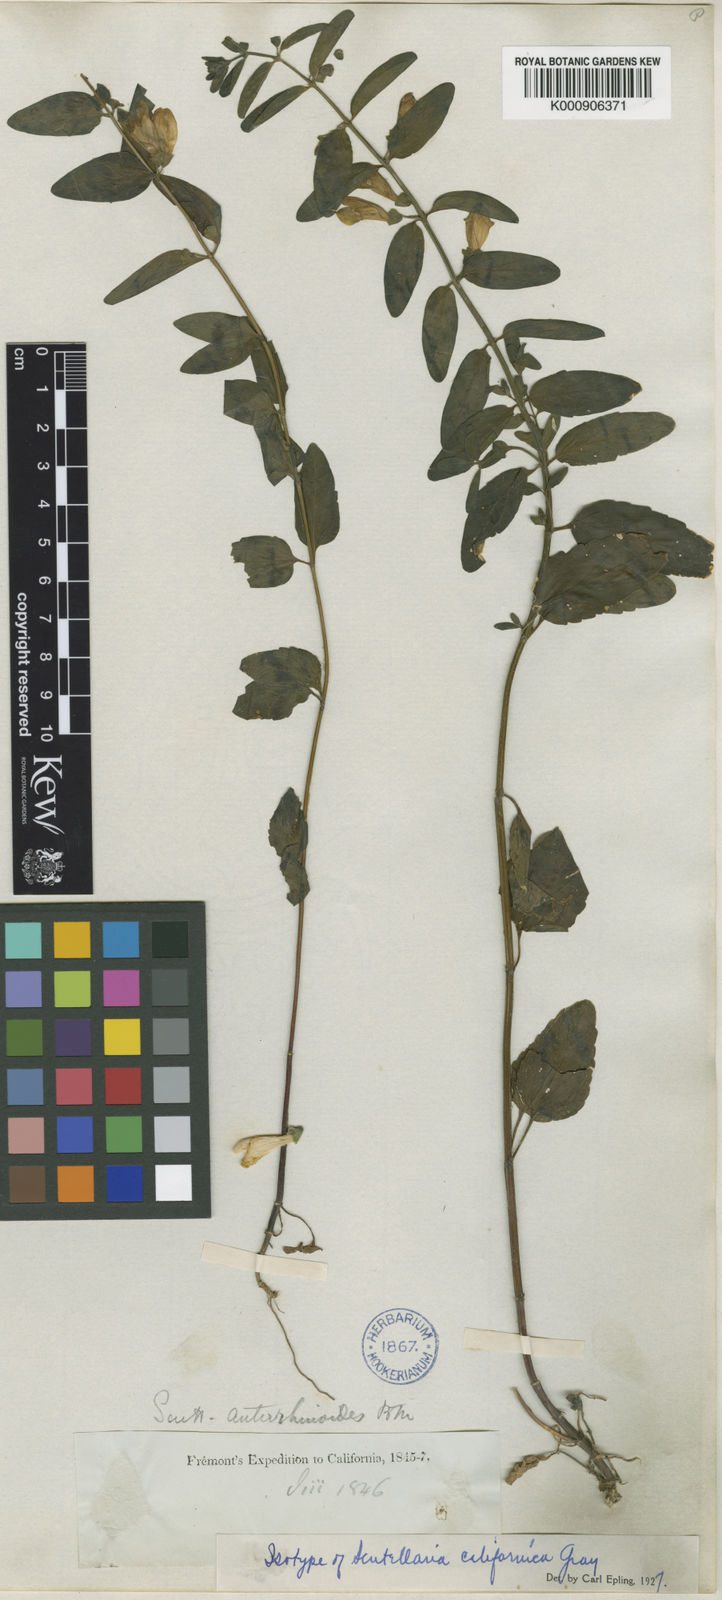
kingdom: Plantae
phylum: Tracheophyta
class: Magnoliopsida
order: Lamiales
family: Lamiaceae
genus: Scutellaria
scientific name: Scutellaria californica
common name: California scullcap
